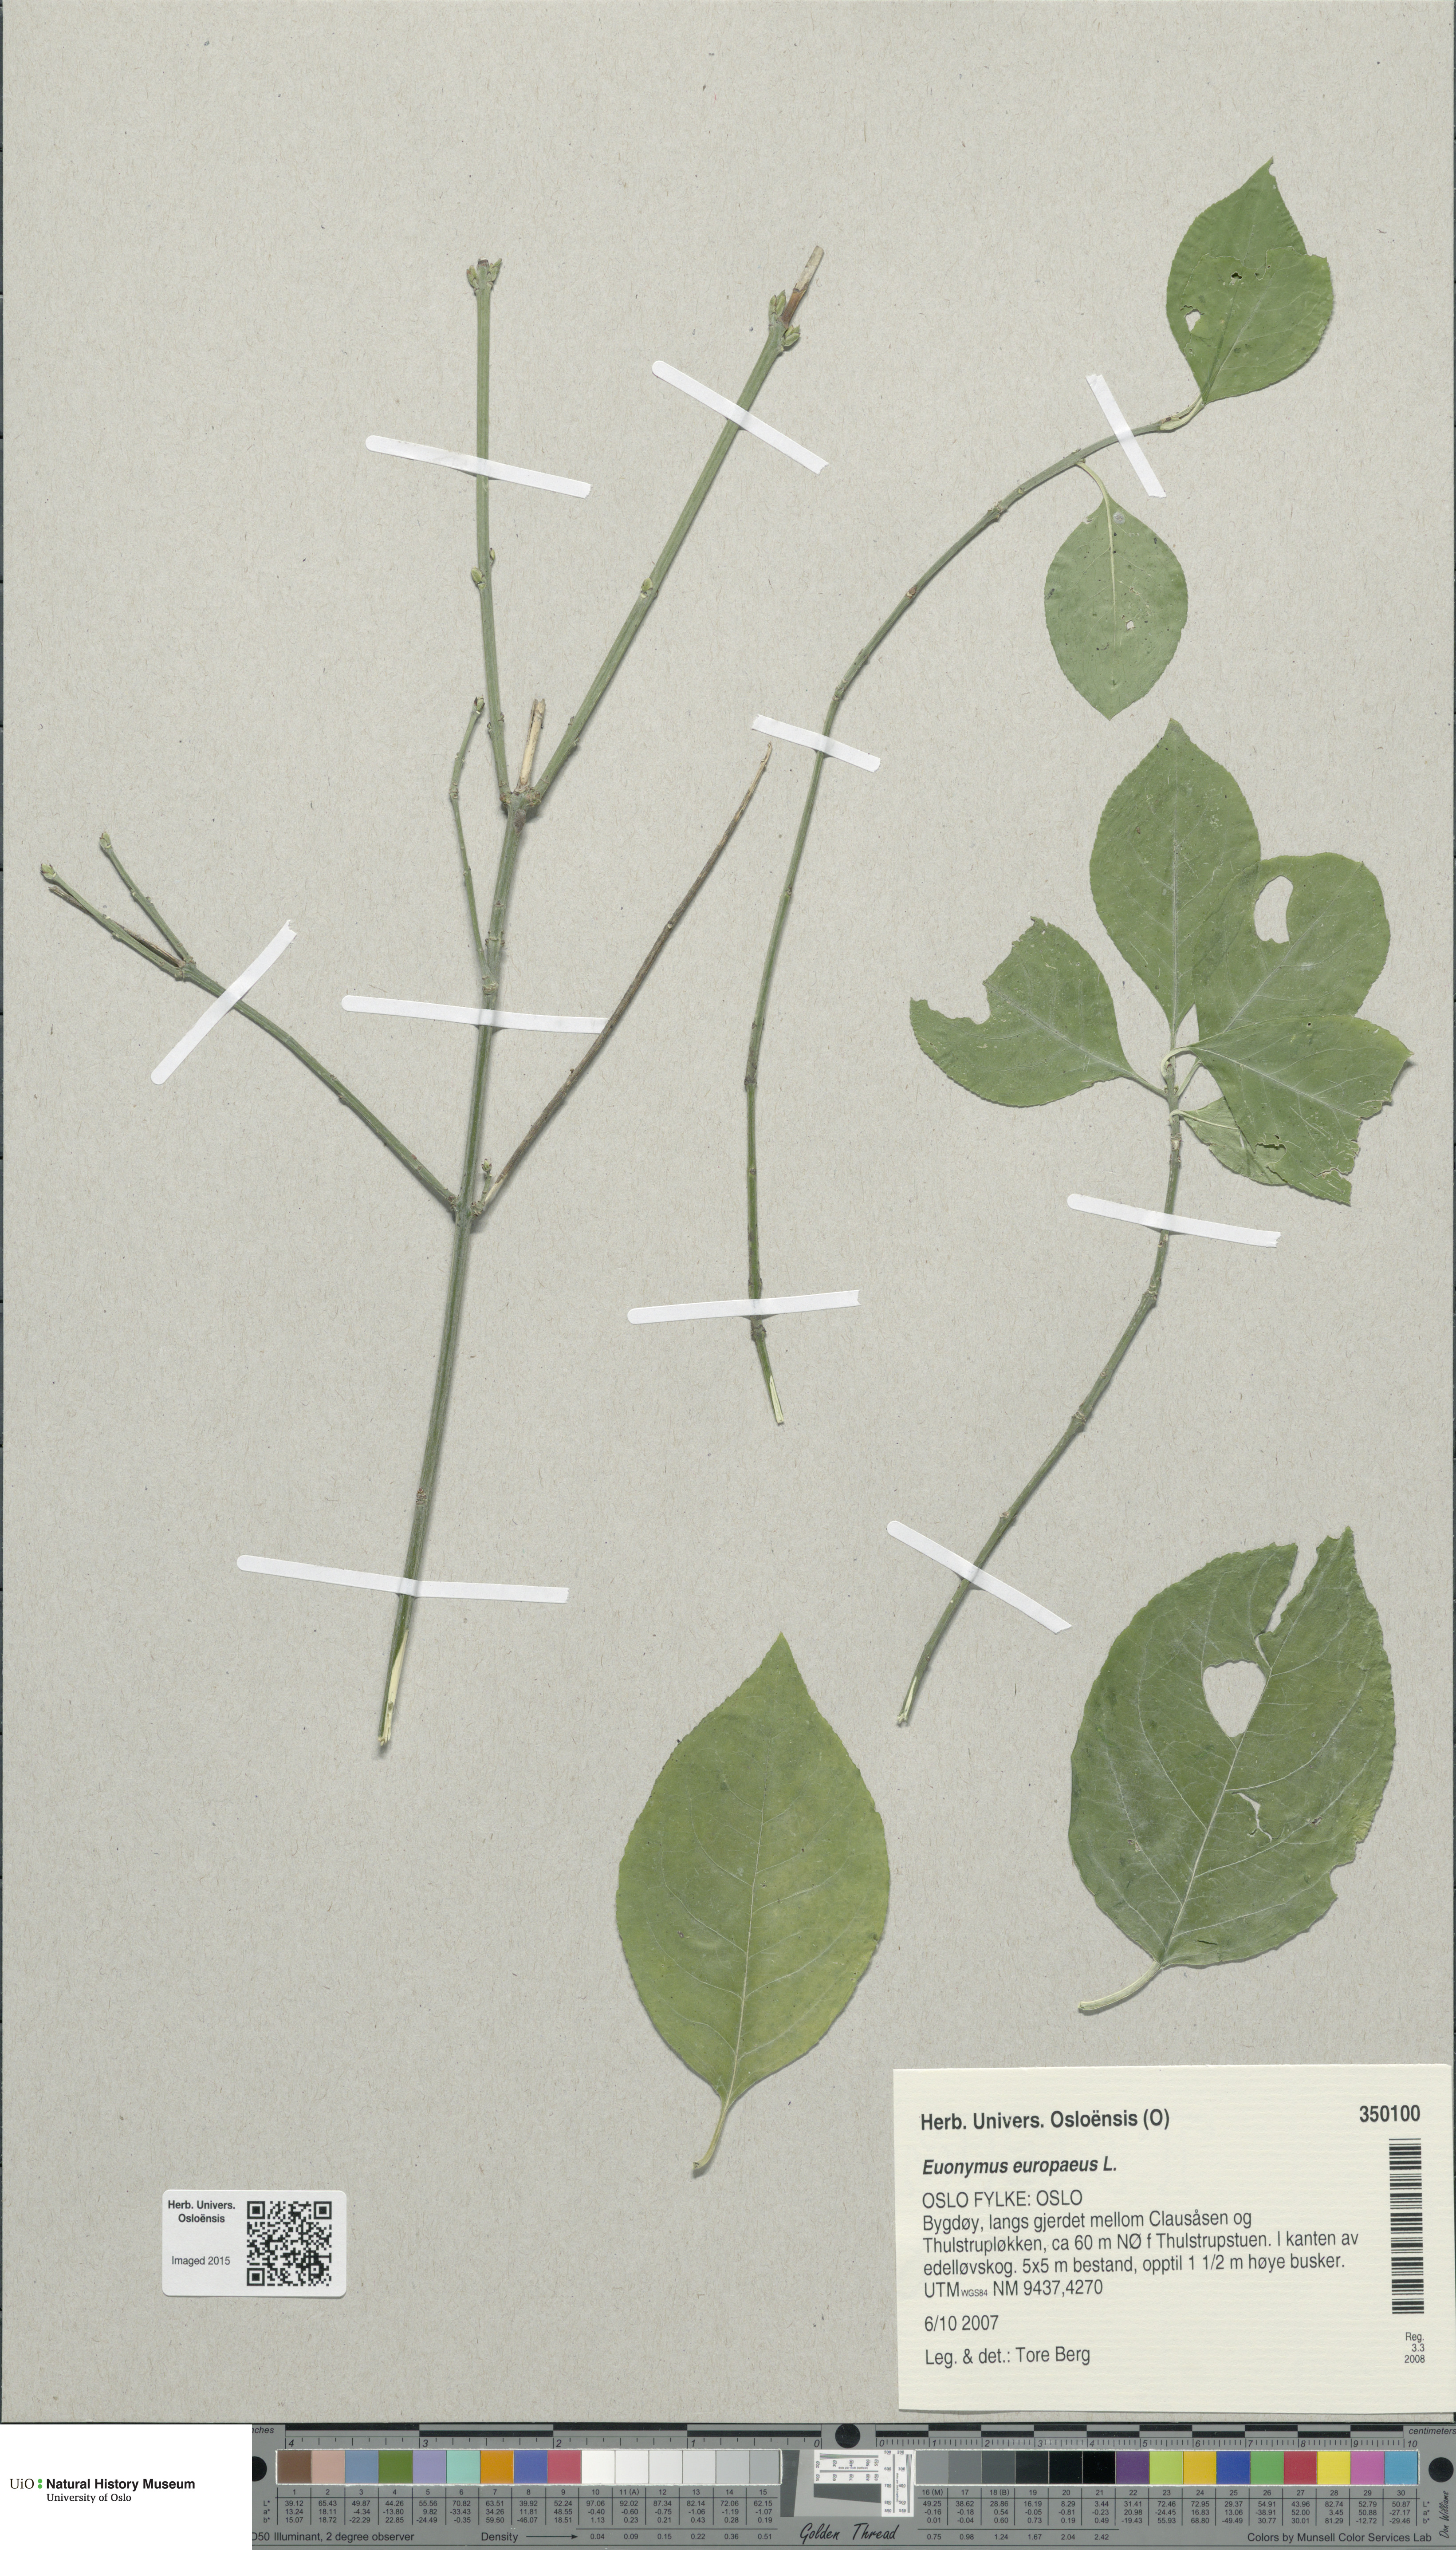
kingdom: Plantae
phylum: Tracheophyta
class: Magnoliopsida
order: Celastrales
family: Celastraceae
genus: Euonymus
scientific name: Euonymus europaeus
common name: Spindle
